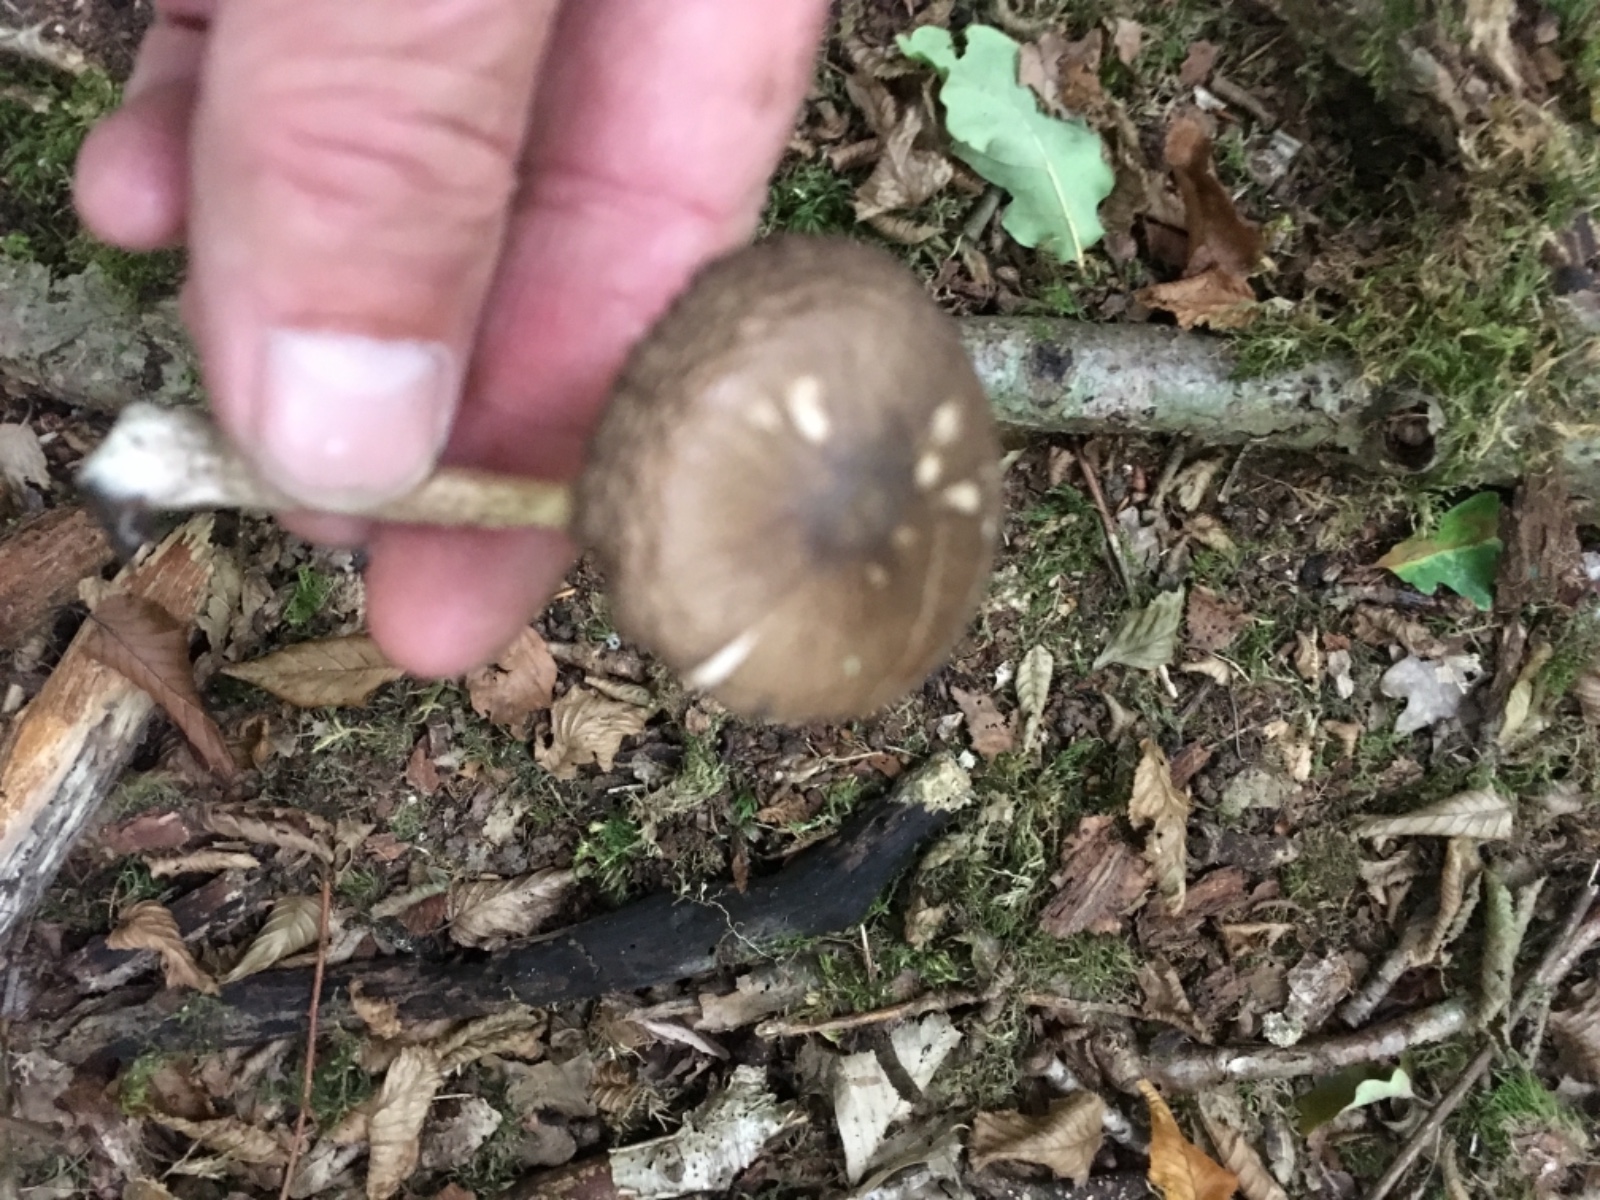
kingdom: Fungi
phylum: Basidiomycota
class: Agaricomycetes
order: Agaricales
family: Pluteaceae
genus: Pluteus
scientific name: Pluteus
